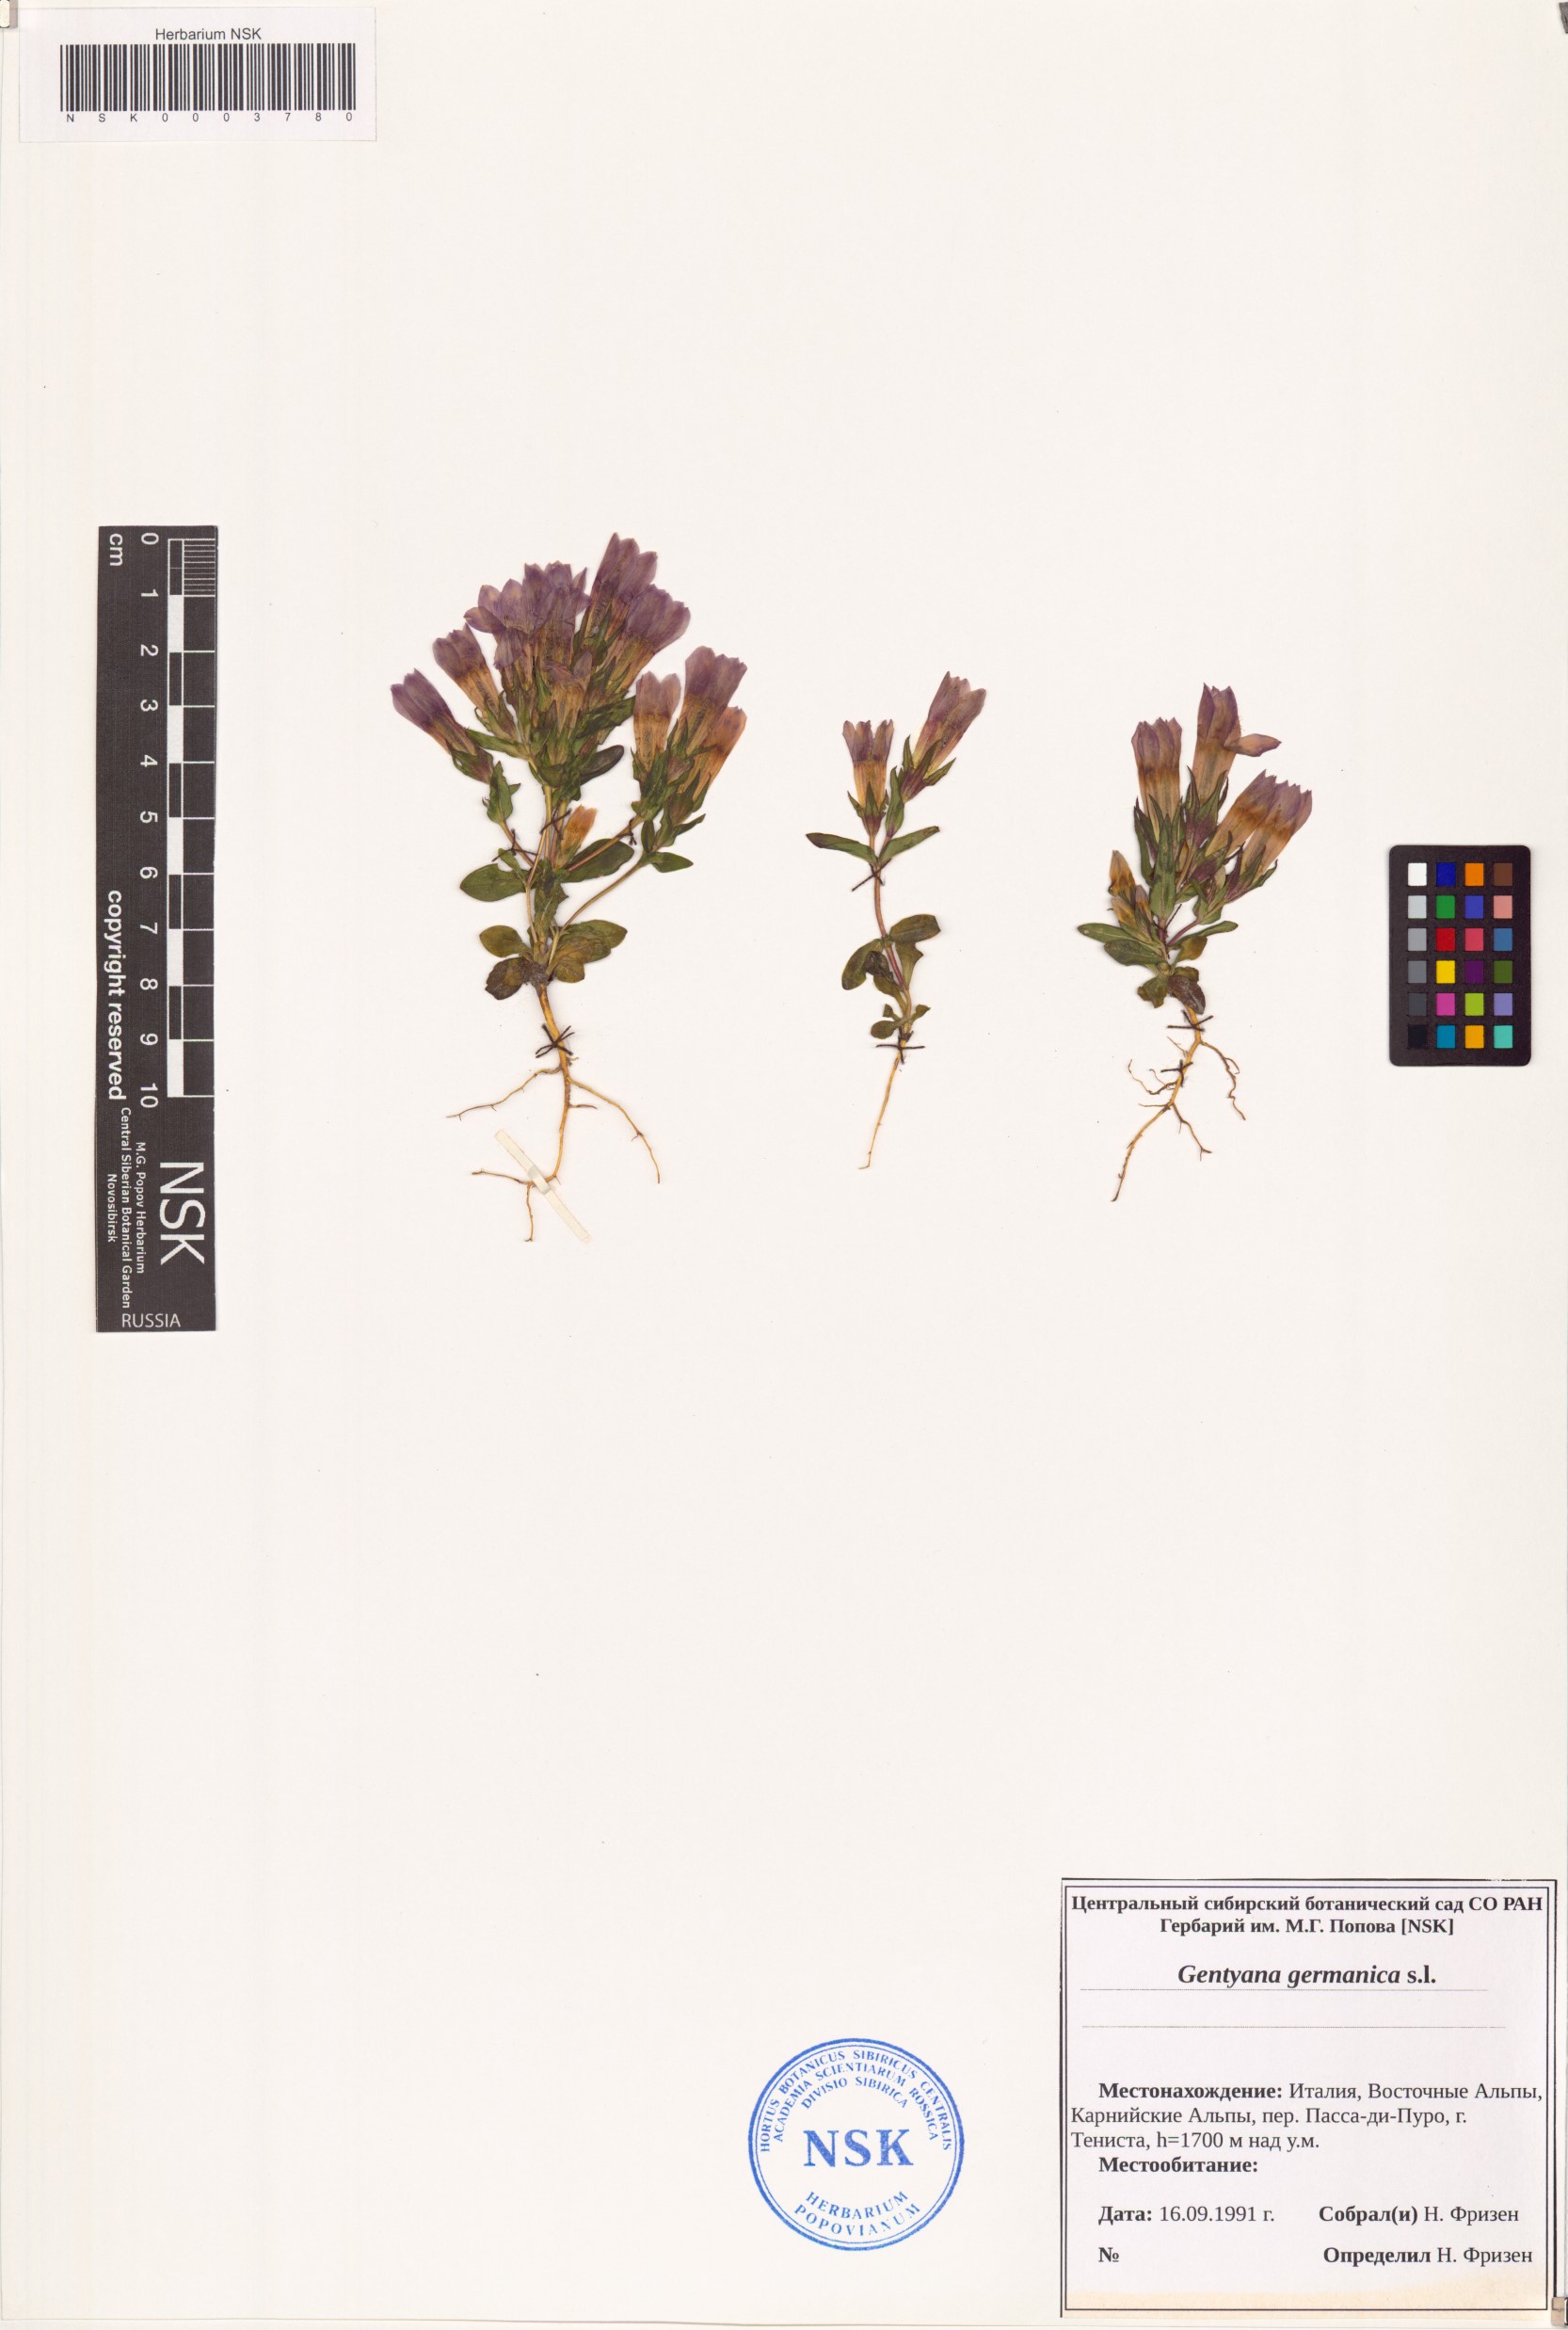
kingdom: Plantae
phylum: Tracheophyta
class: Magnoliopsida
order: Gentianales
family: Gentianaceae
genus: Gentianella
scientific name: Gentianella germanica
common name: Chiltern-gentian
